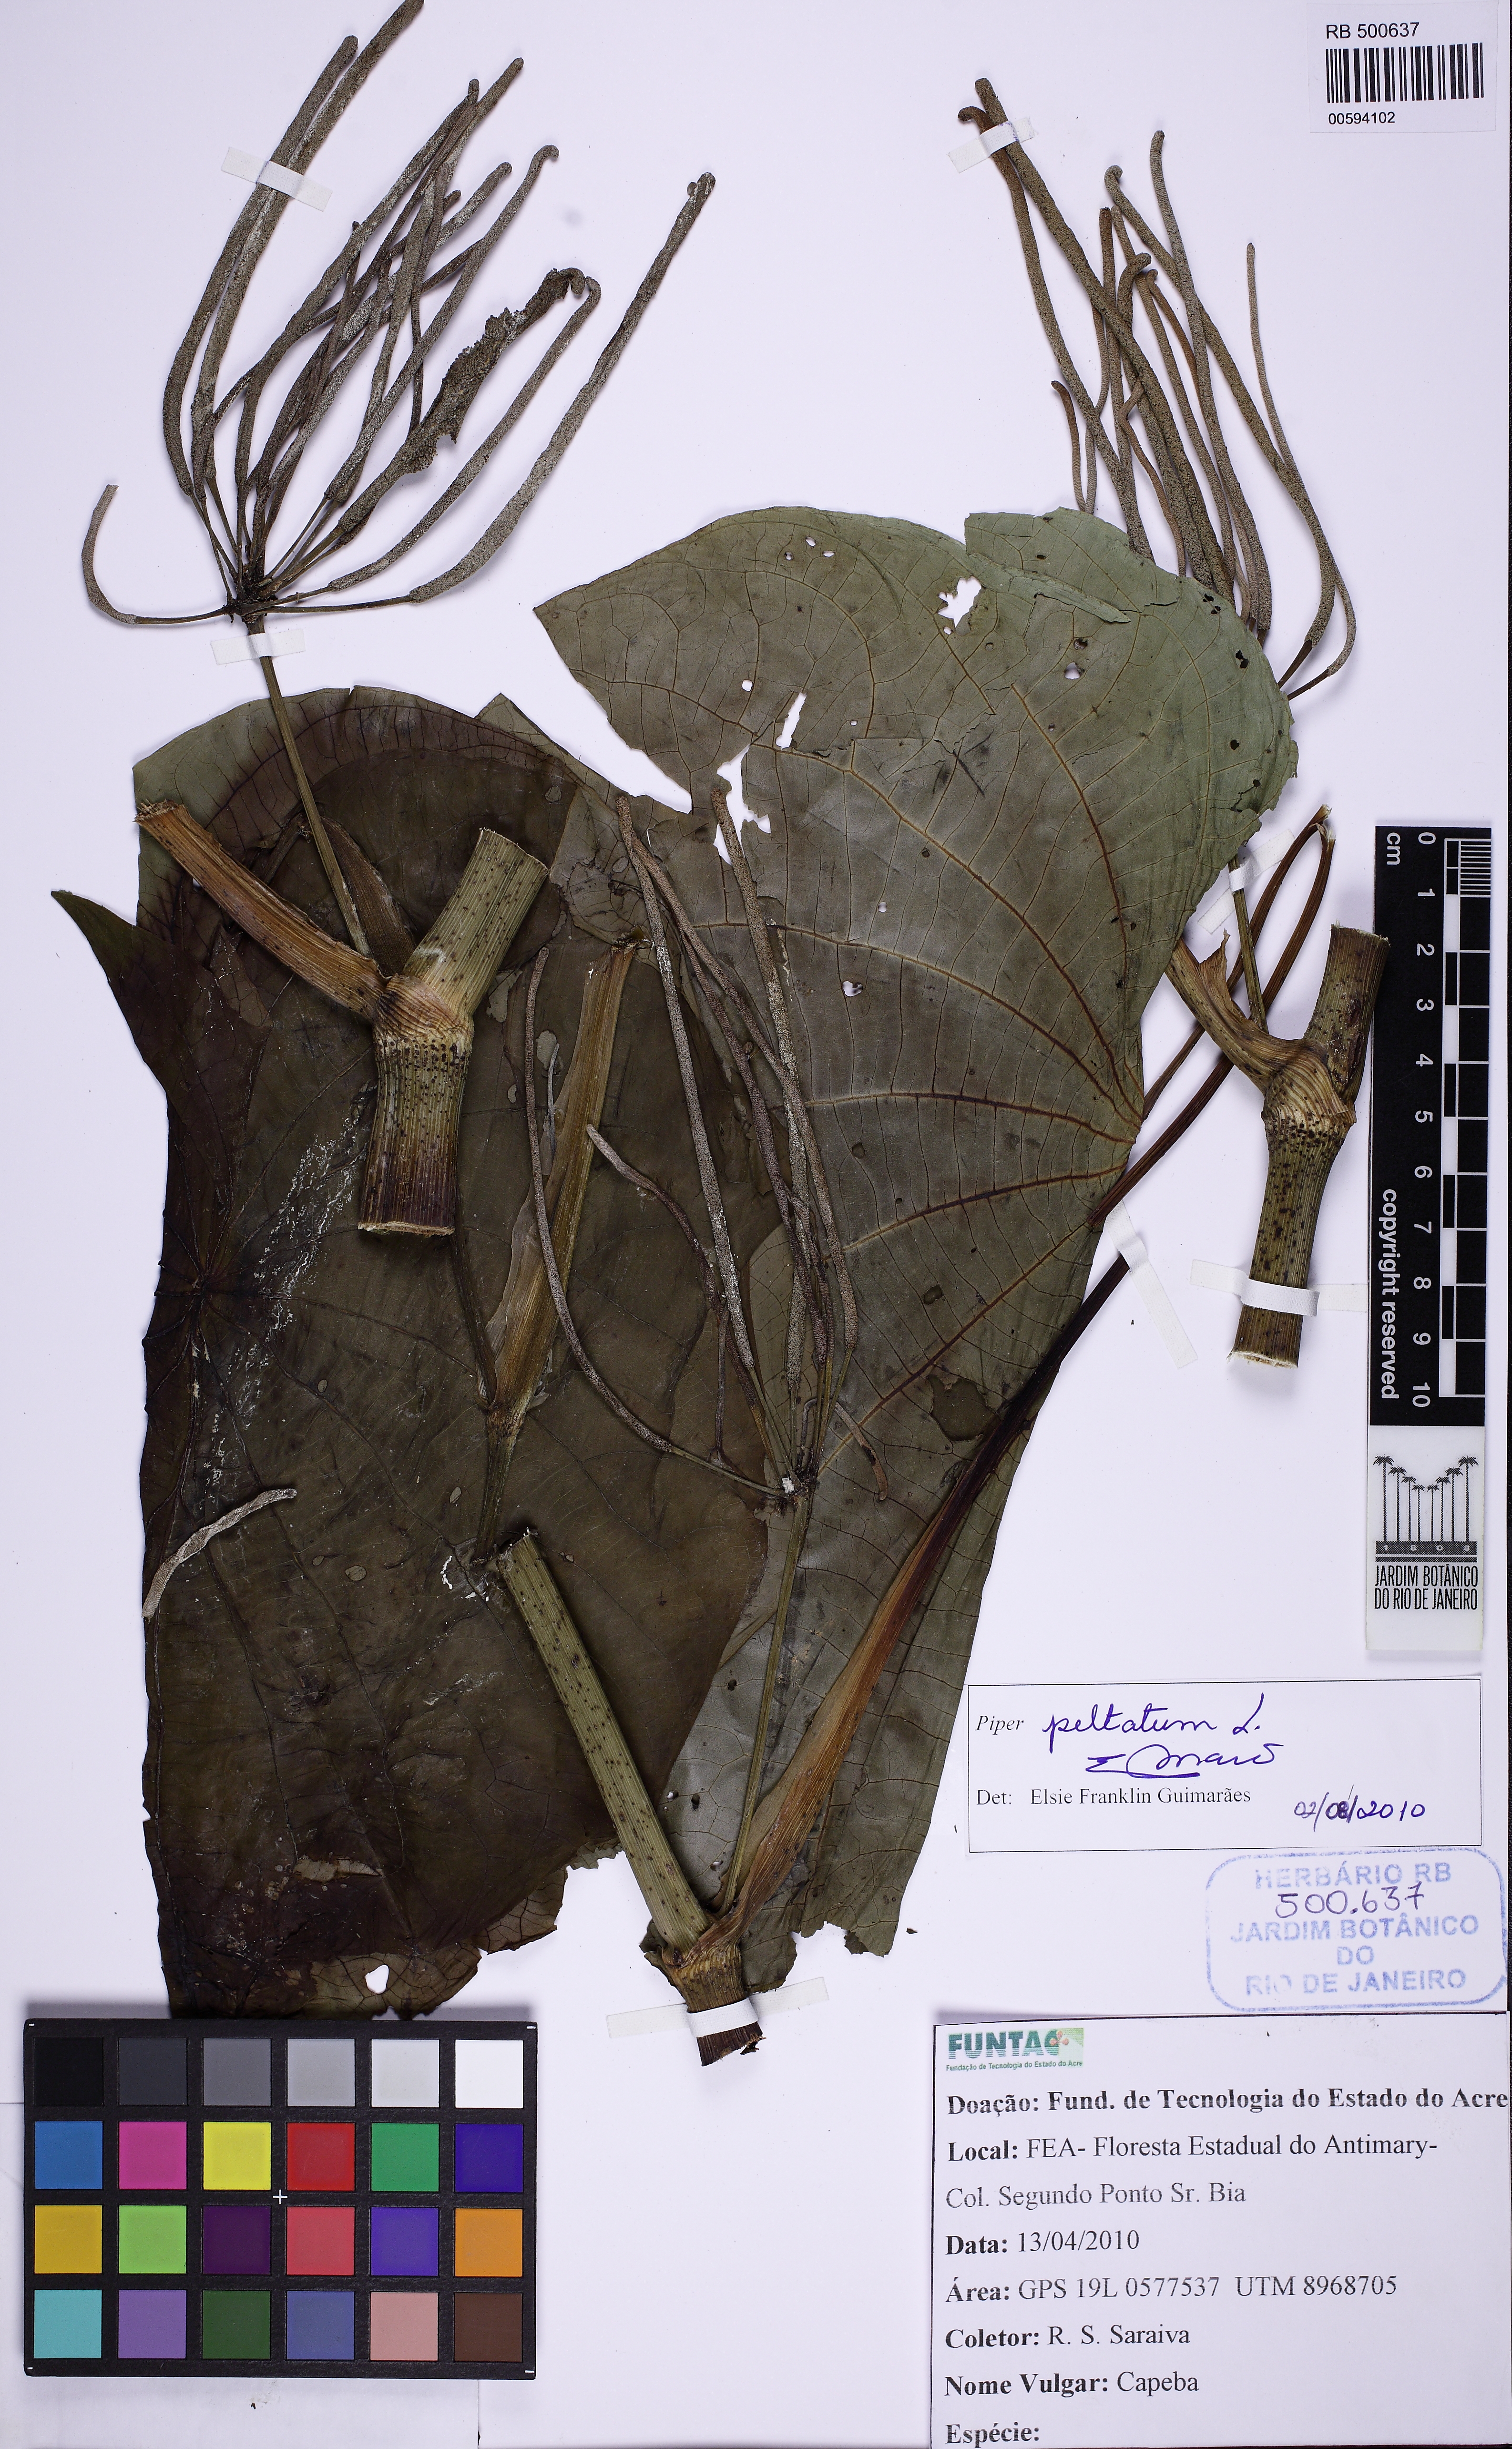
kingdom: Plantae
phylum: Tracheophyta
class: Magnoliopsida
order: Piperales
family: Piperaceae
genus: Piper
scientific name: Piper peltatum
